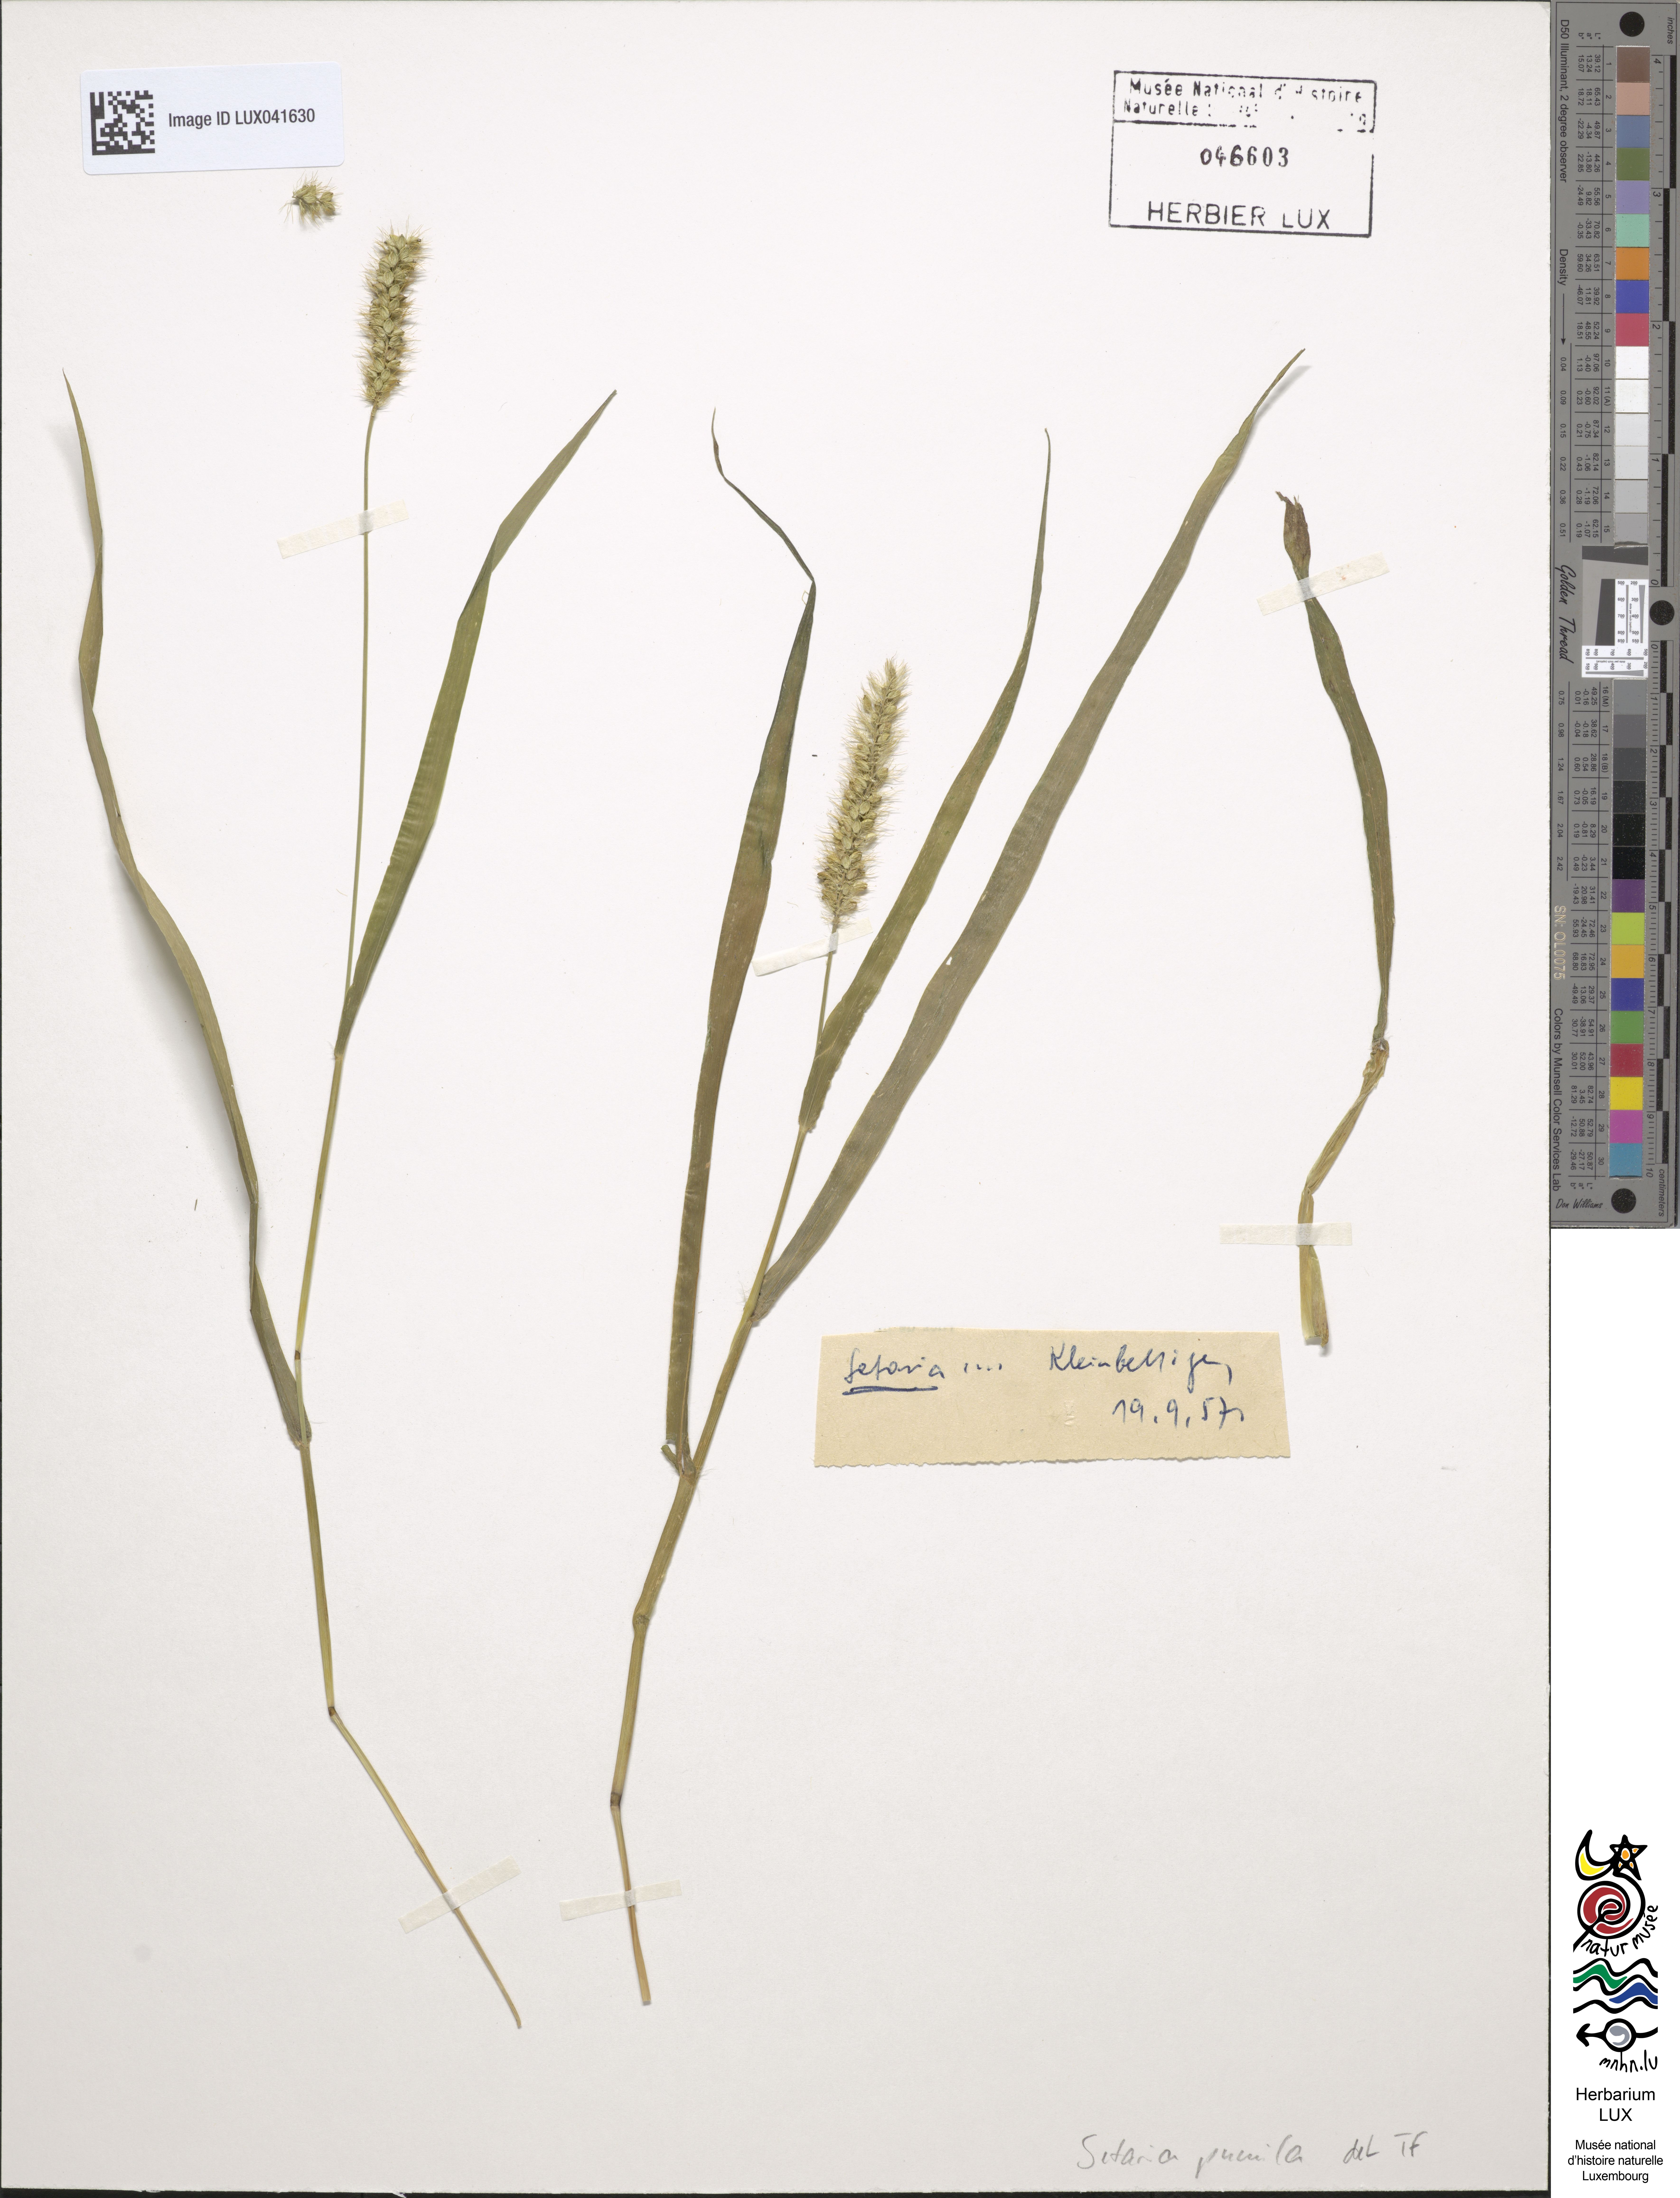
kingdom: Plantae
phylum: Tracheophyta
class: Liliopsida
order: Poales
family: Poaceae
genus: Setaria
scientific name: Setaria pumila
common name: Yellow bristle-grass
